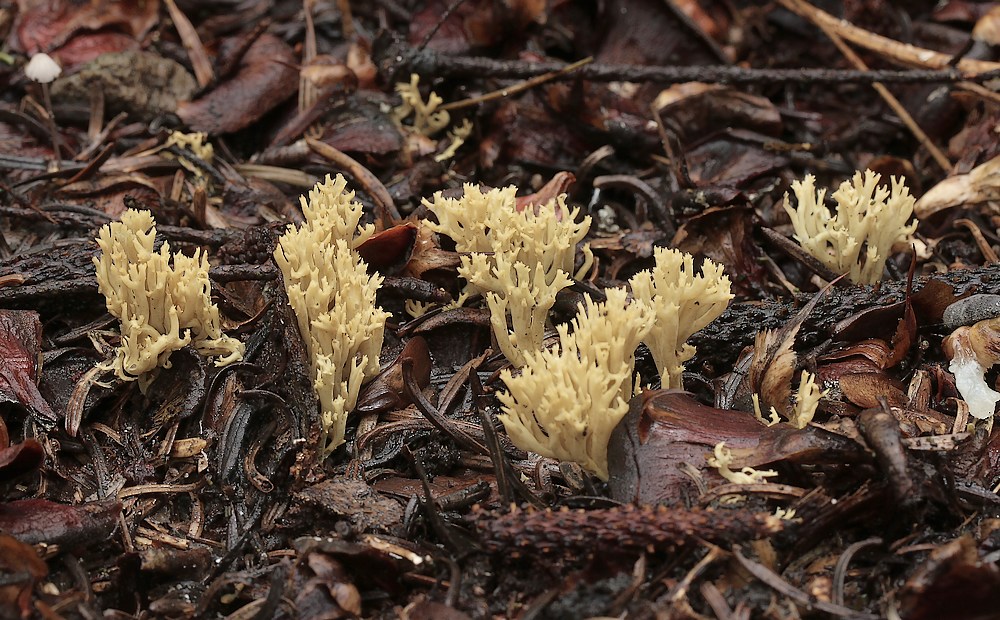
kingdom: Fungi
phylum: Basidiomycota
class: Agaricomycetes
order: Gomphales
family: Gomphaceae
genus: Phaeoclavulina
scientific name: Phaeoclavulina eumorpha
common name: gran-koralsvamp
